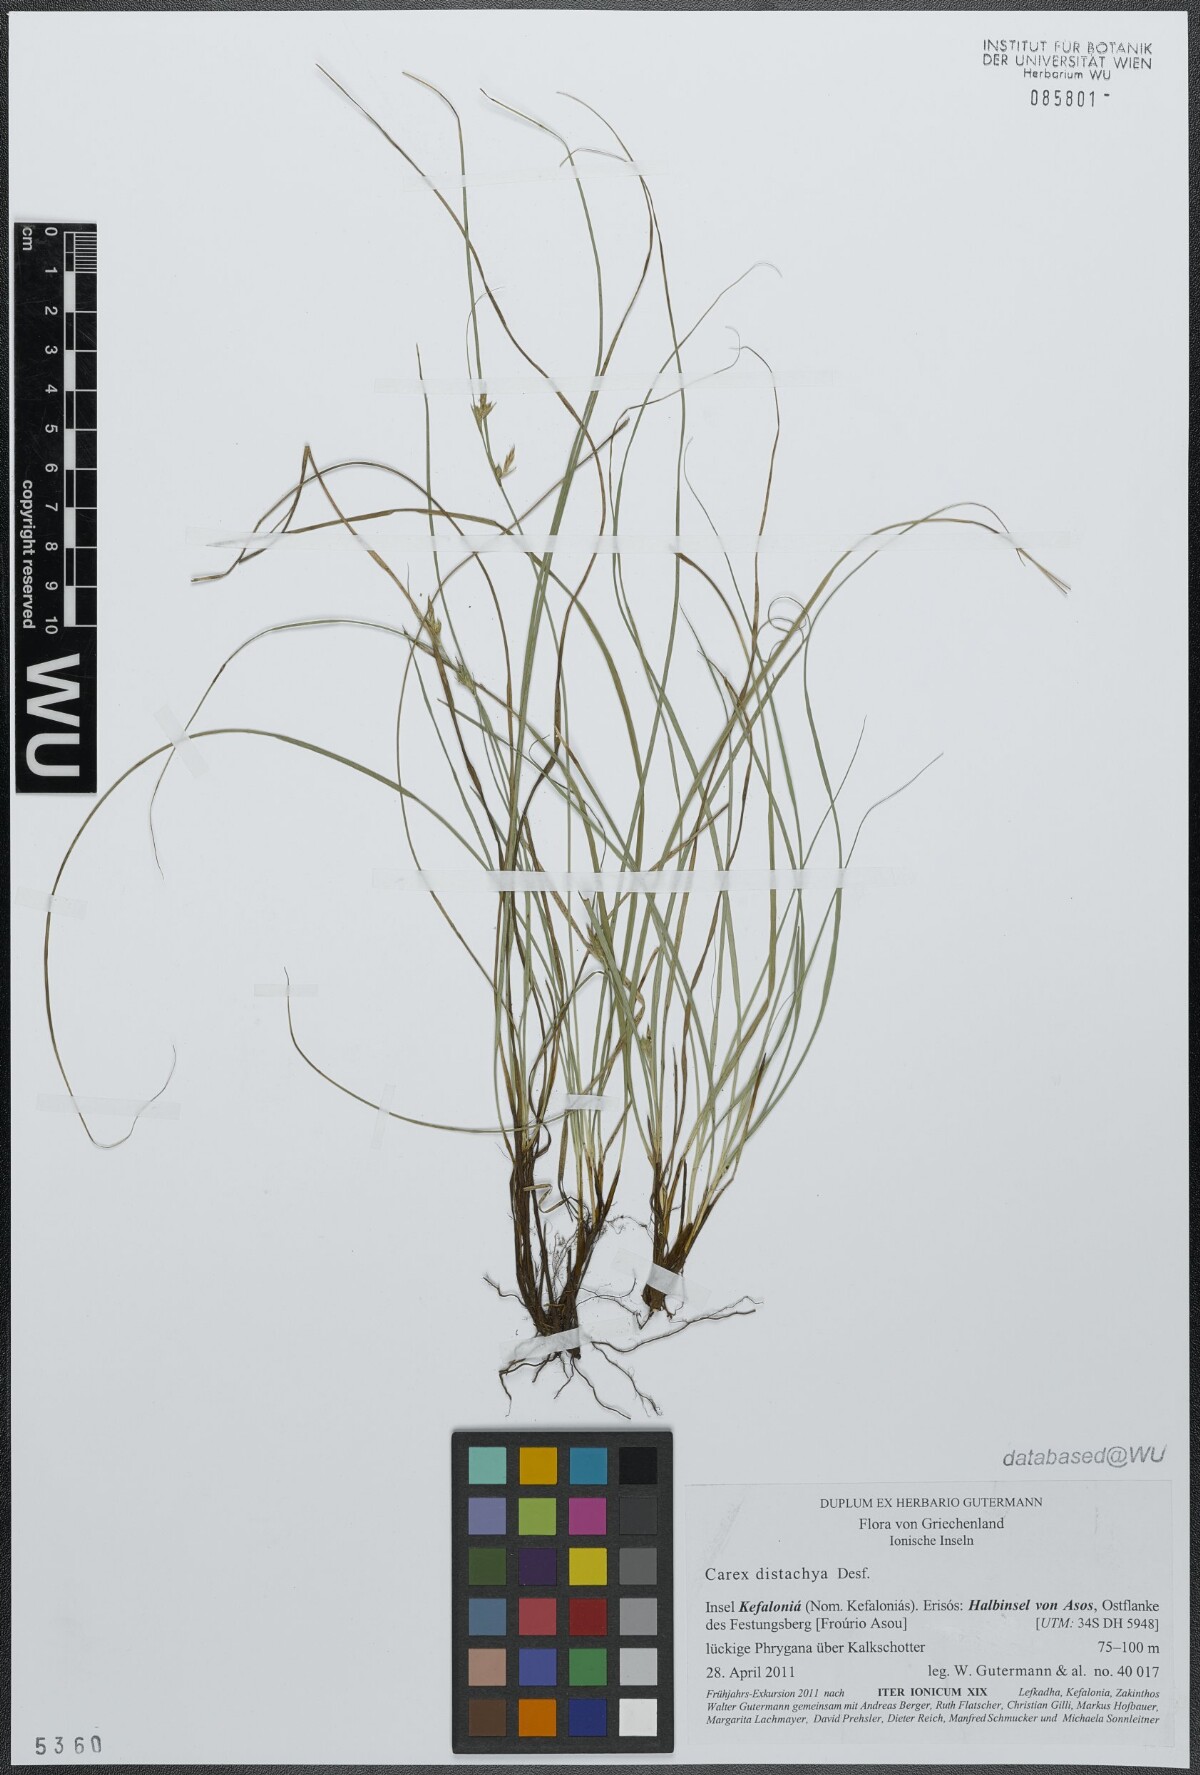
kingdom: Plantae
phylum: Tracheophyta
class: Liliopsida
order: Poales
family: Cyperaceae
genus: Carex
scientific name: Carex distachya
